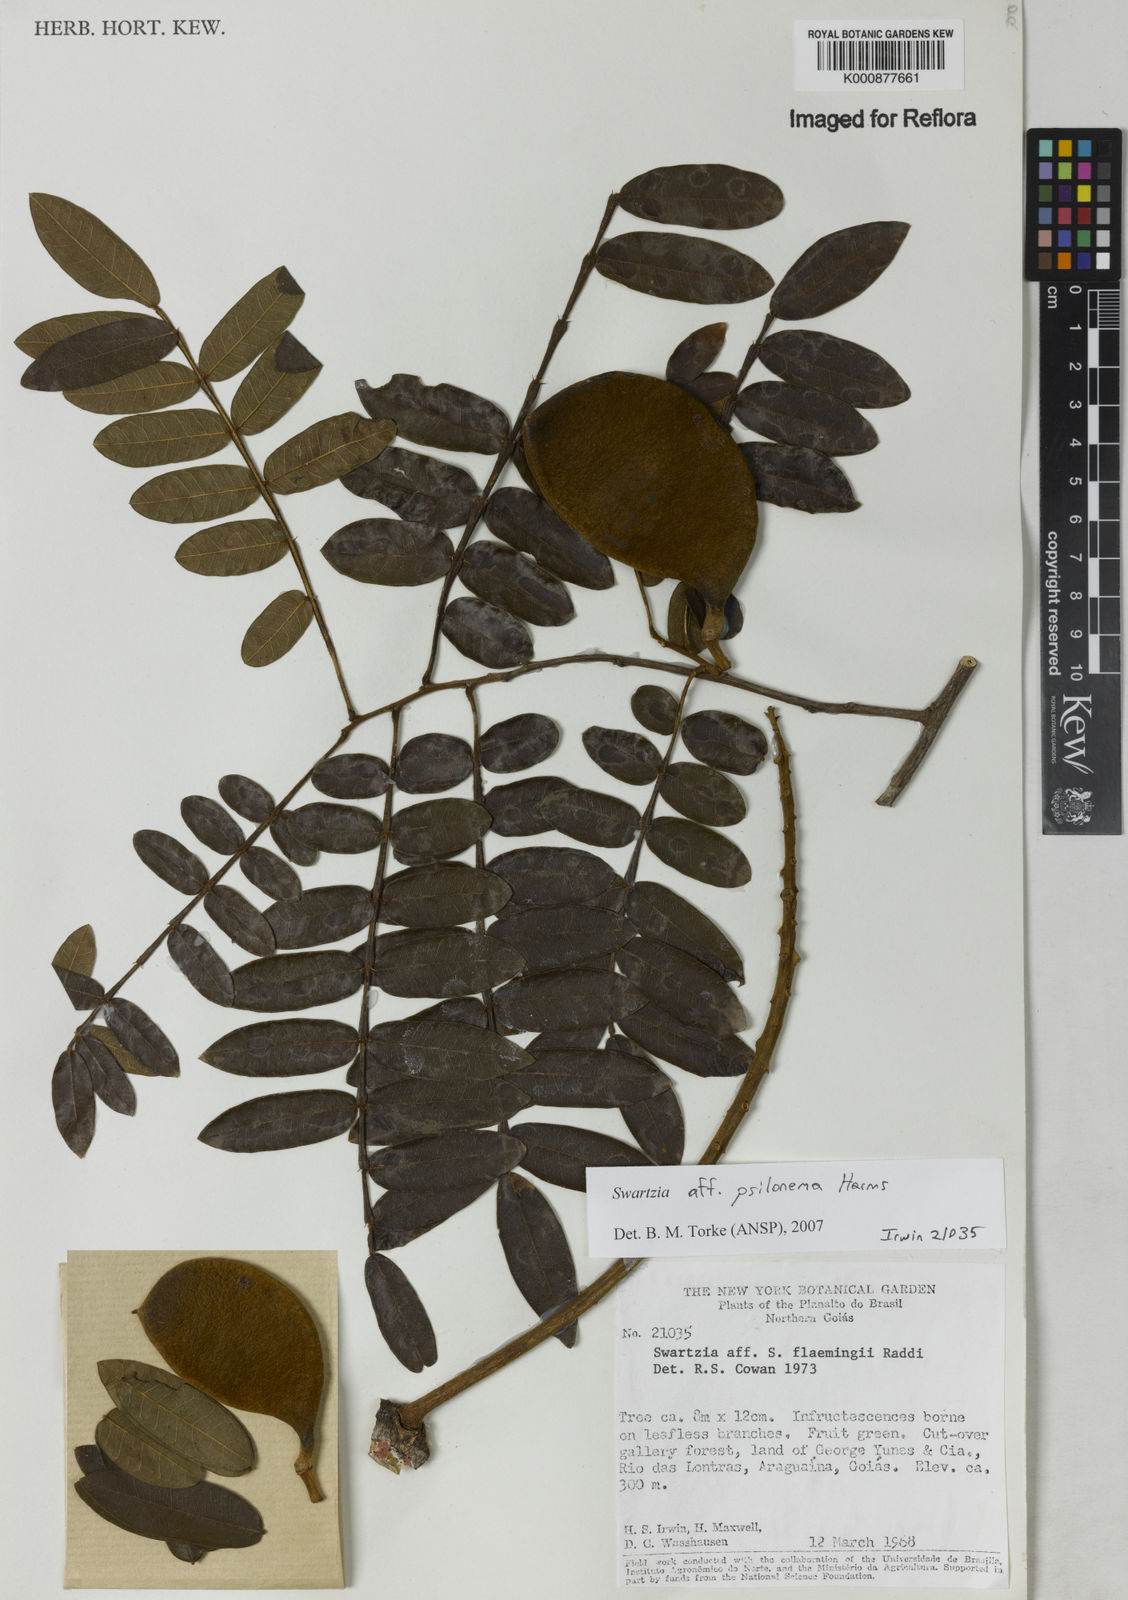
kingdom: Plantae
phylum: Tracheophyta
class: Magnoliopsida
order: Fabales
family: Fabaceae
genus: Swartzia
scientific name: Swartzia psilonema
